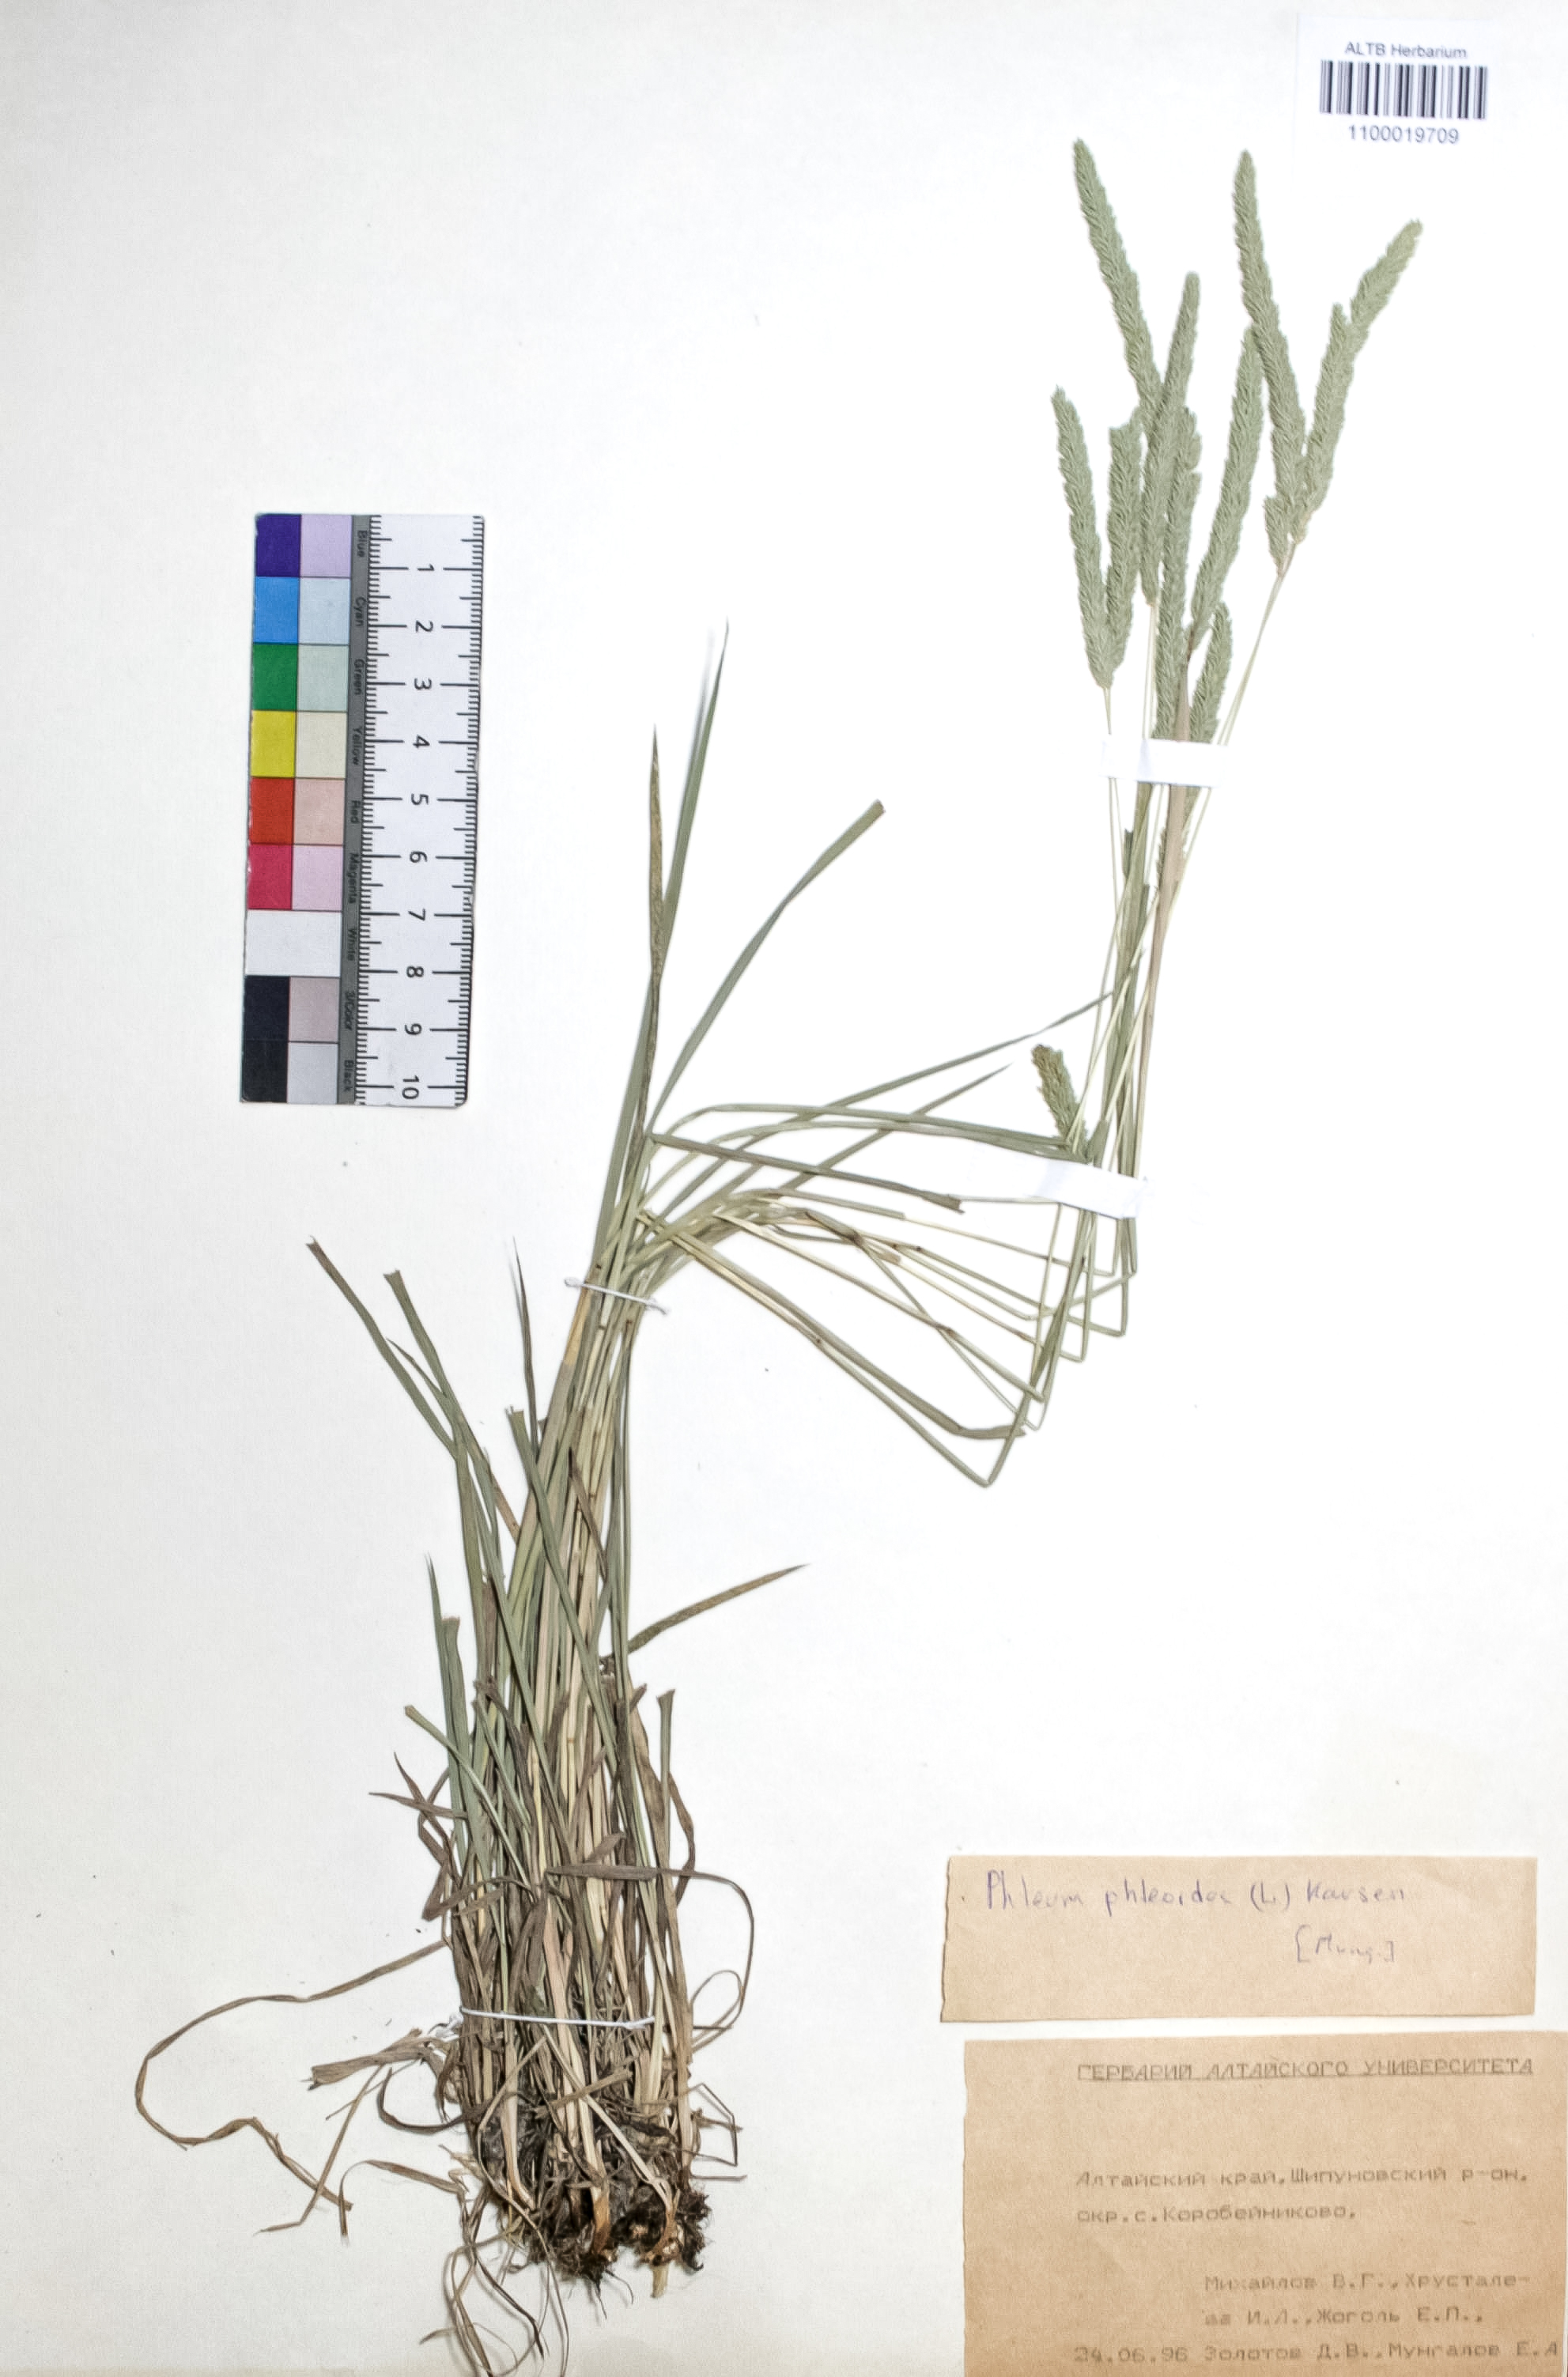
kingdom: Plantae
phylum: Tracheophyta
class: Liliopsida
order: Poales
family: Poaceae
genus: Phleum
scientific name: Phleum phleoides
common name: Purple-stem cat's-tail
